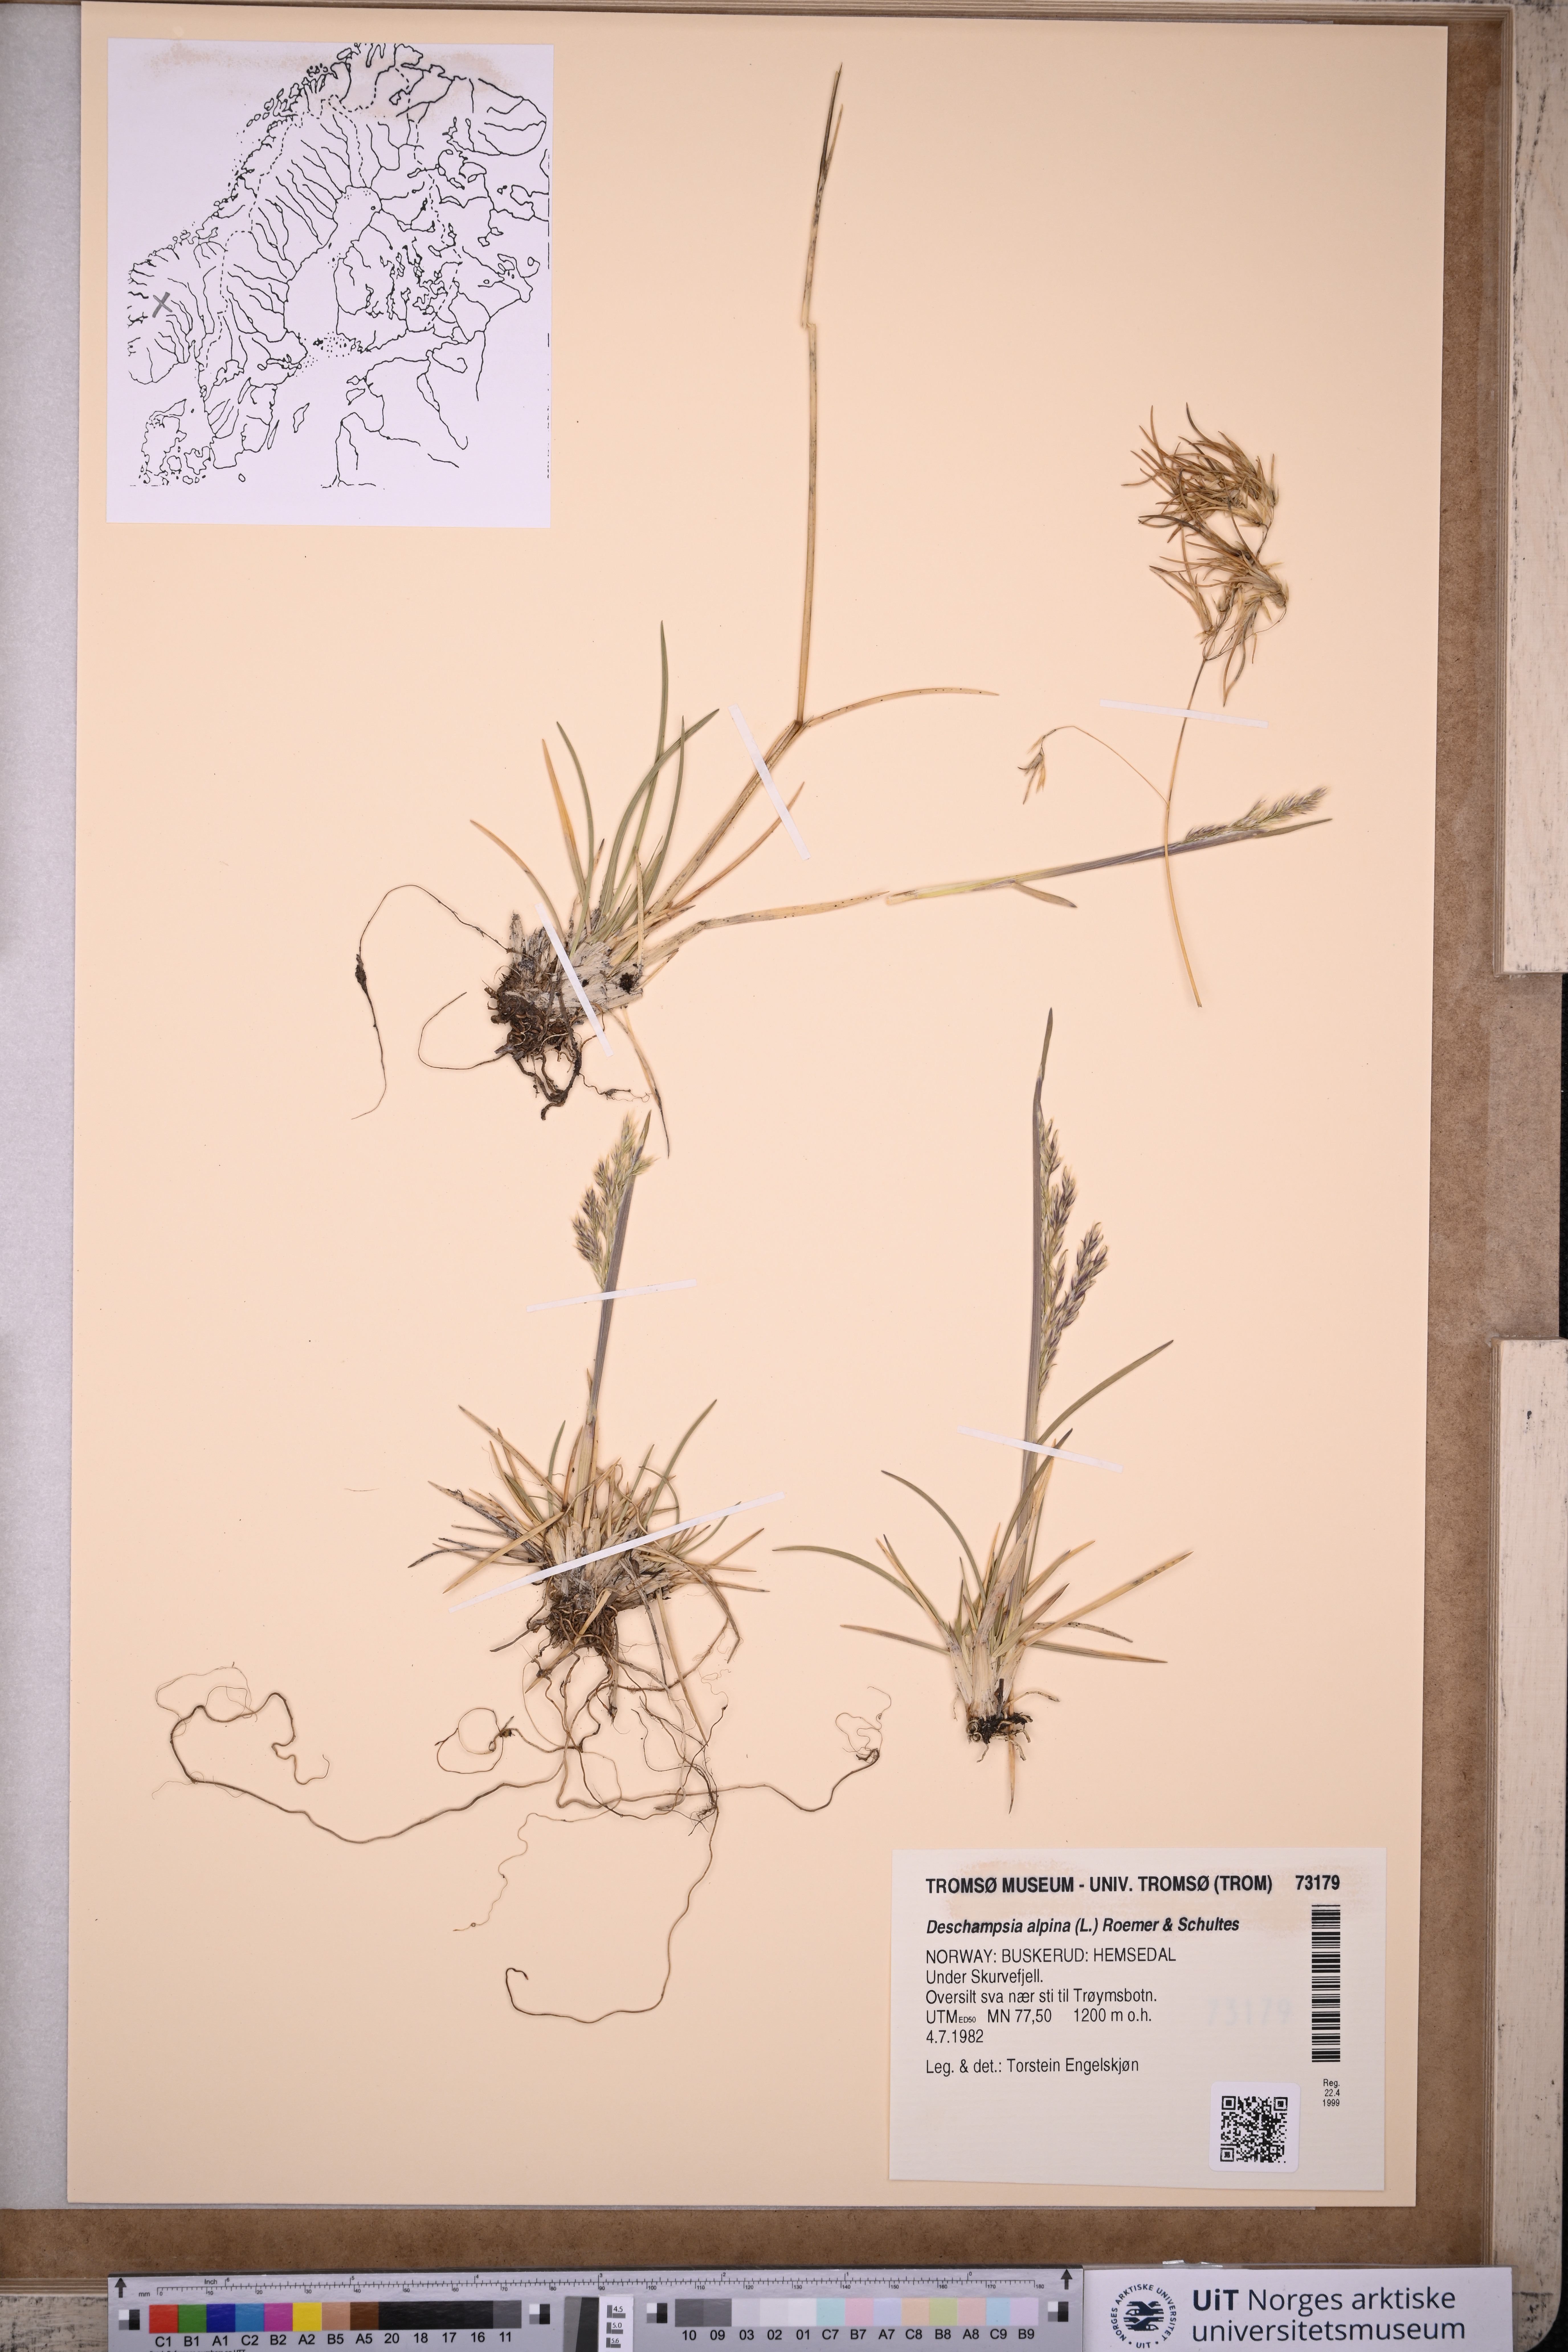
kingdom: Plantae
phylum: Tracheophyta
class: Liliopsida
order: Poales
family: Poaceae
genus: Deschampsia
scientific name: Deschampsia cespitosa
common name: Tufted hair-grass
